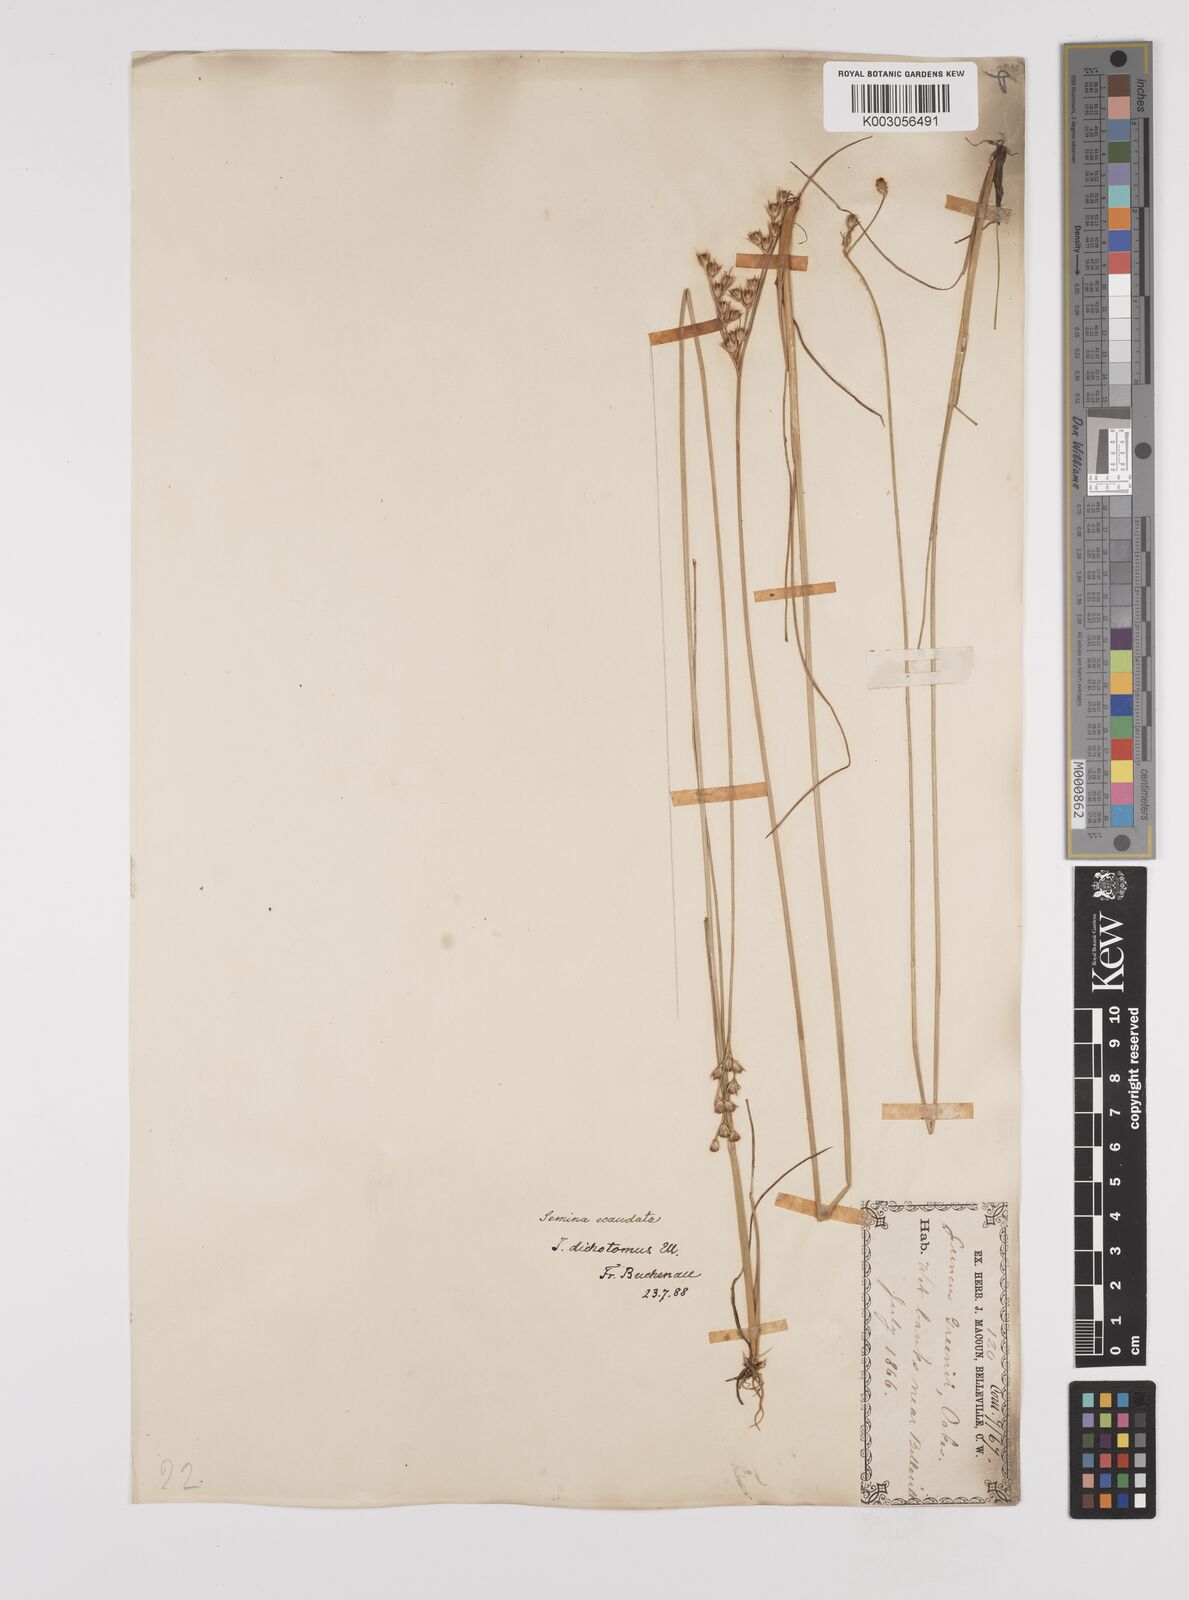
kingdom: Plantae
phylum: Tracheophyta
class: Liliopsida
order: Poales
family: Juncaceae
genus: Juncus
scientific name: Juncus dichotomus
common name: Forked rush
